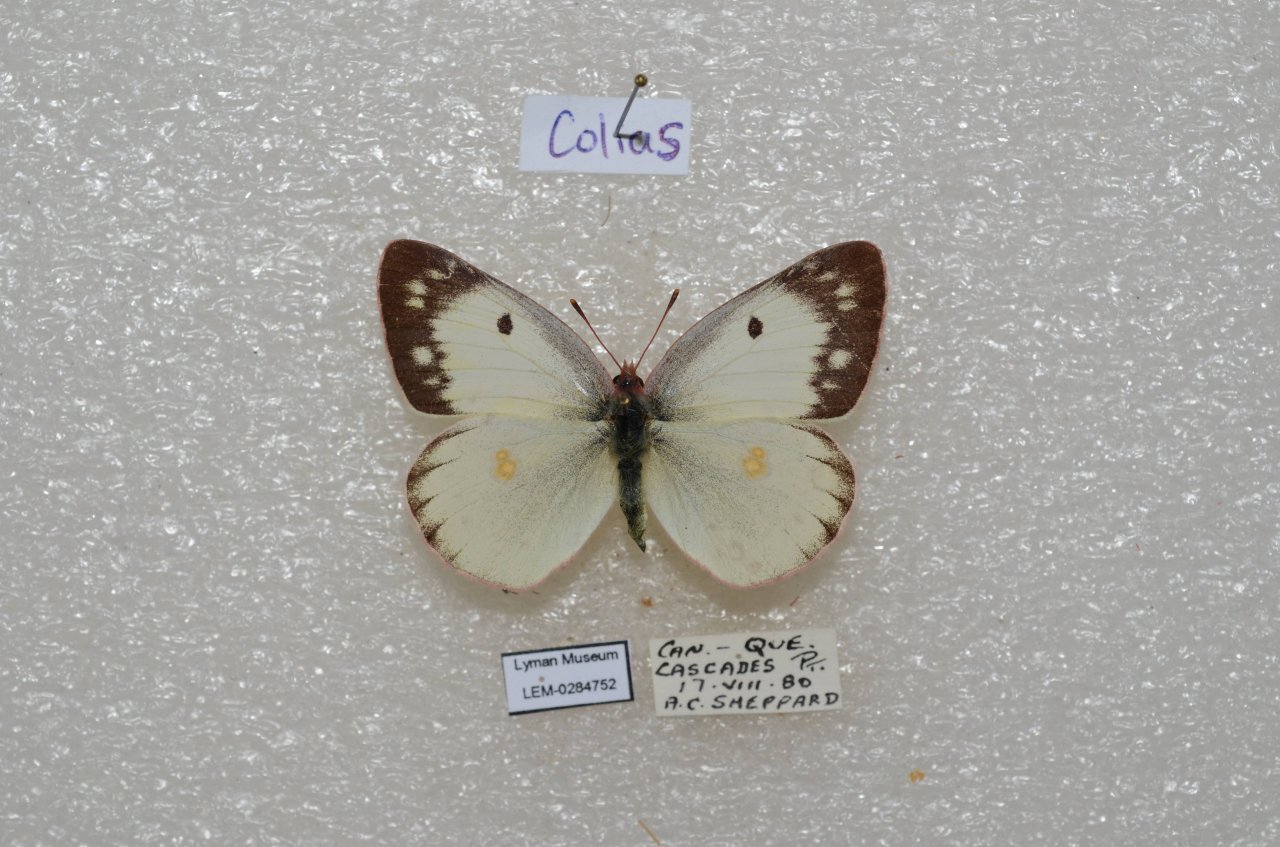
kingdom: Animalia
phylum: Arthropoda
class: Insecta
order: Lepidoptera
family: Pieridae
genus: Colias
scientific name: Colias philodice
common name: Clouded Sulphur
